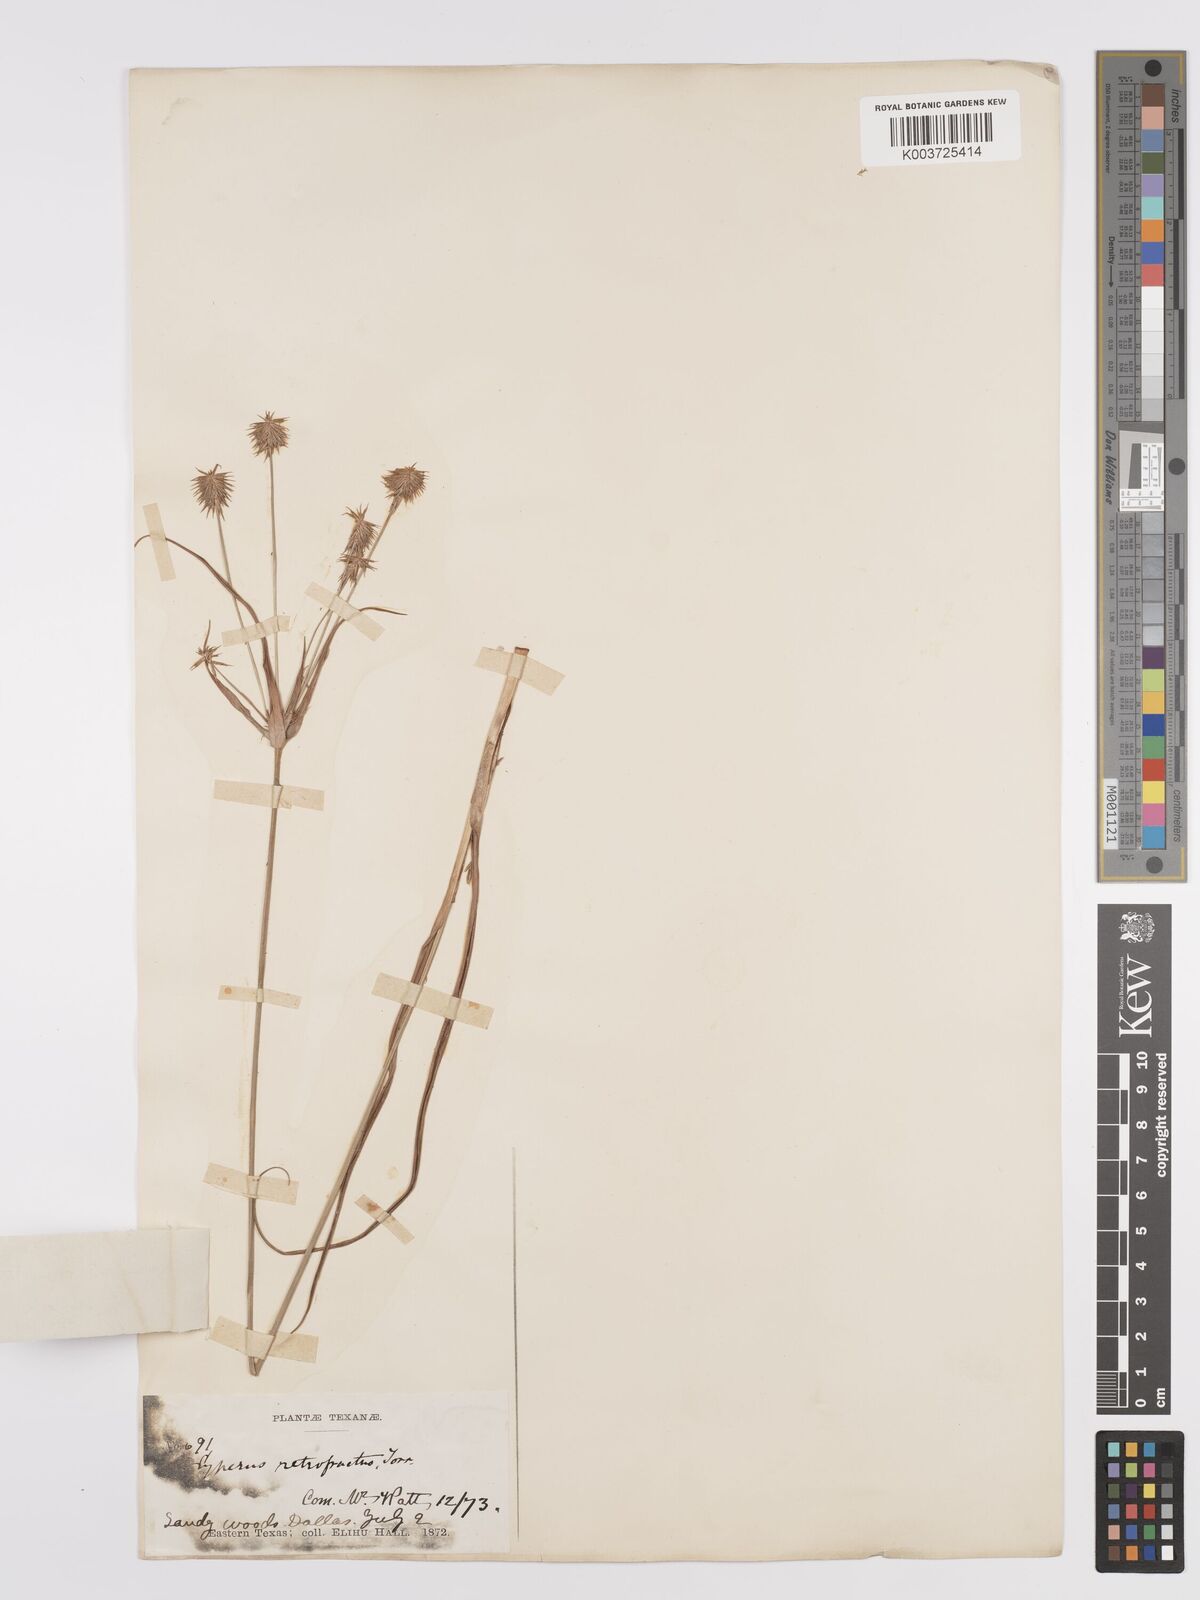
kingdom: Plantae
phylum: Tracheophyta
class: Liliopsida
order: Poales
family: Cyperaceae
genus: Cyperus
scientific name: Cyperus retrofractus
